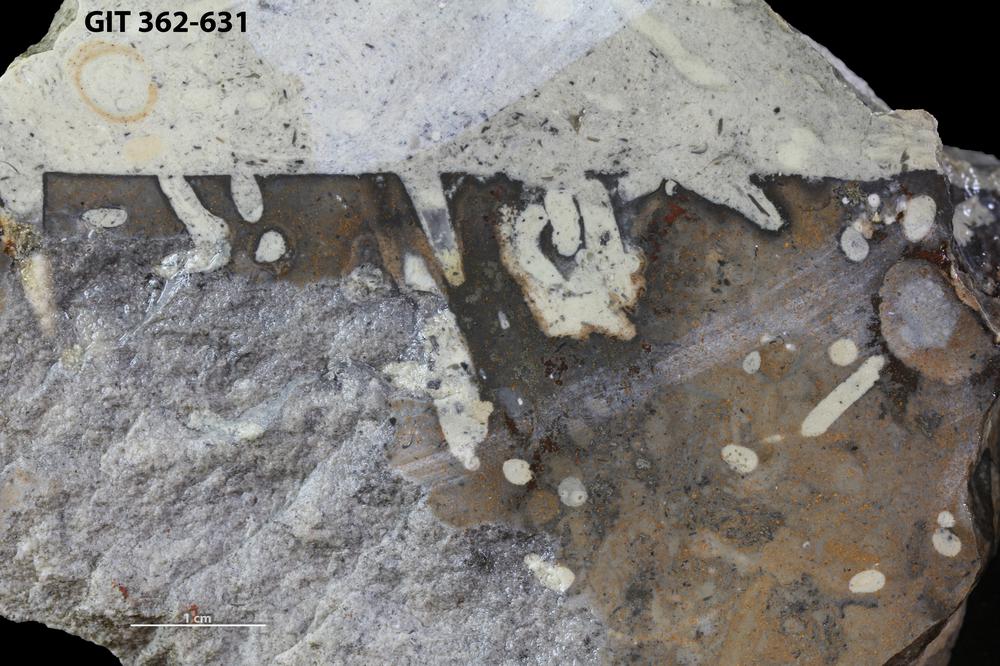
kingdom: Animalia
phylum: Sipuncula
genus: Trypanites
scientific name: Trypanites
